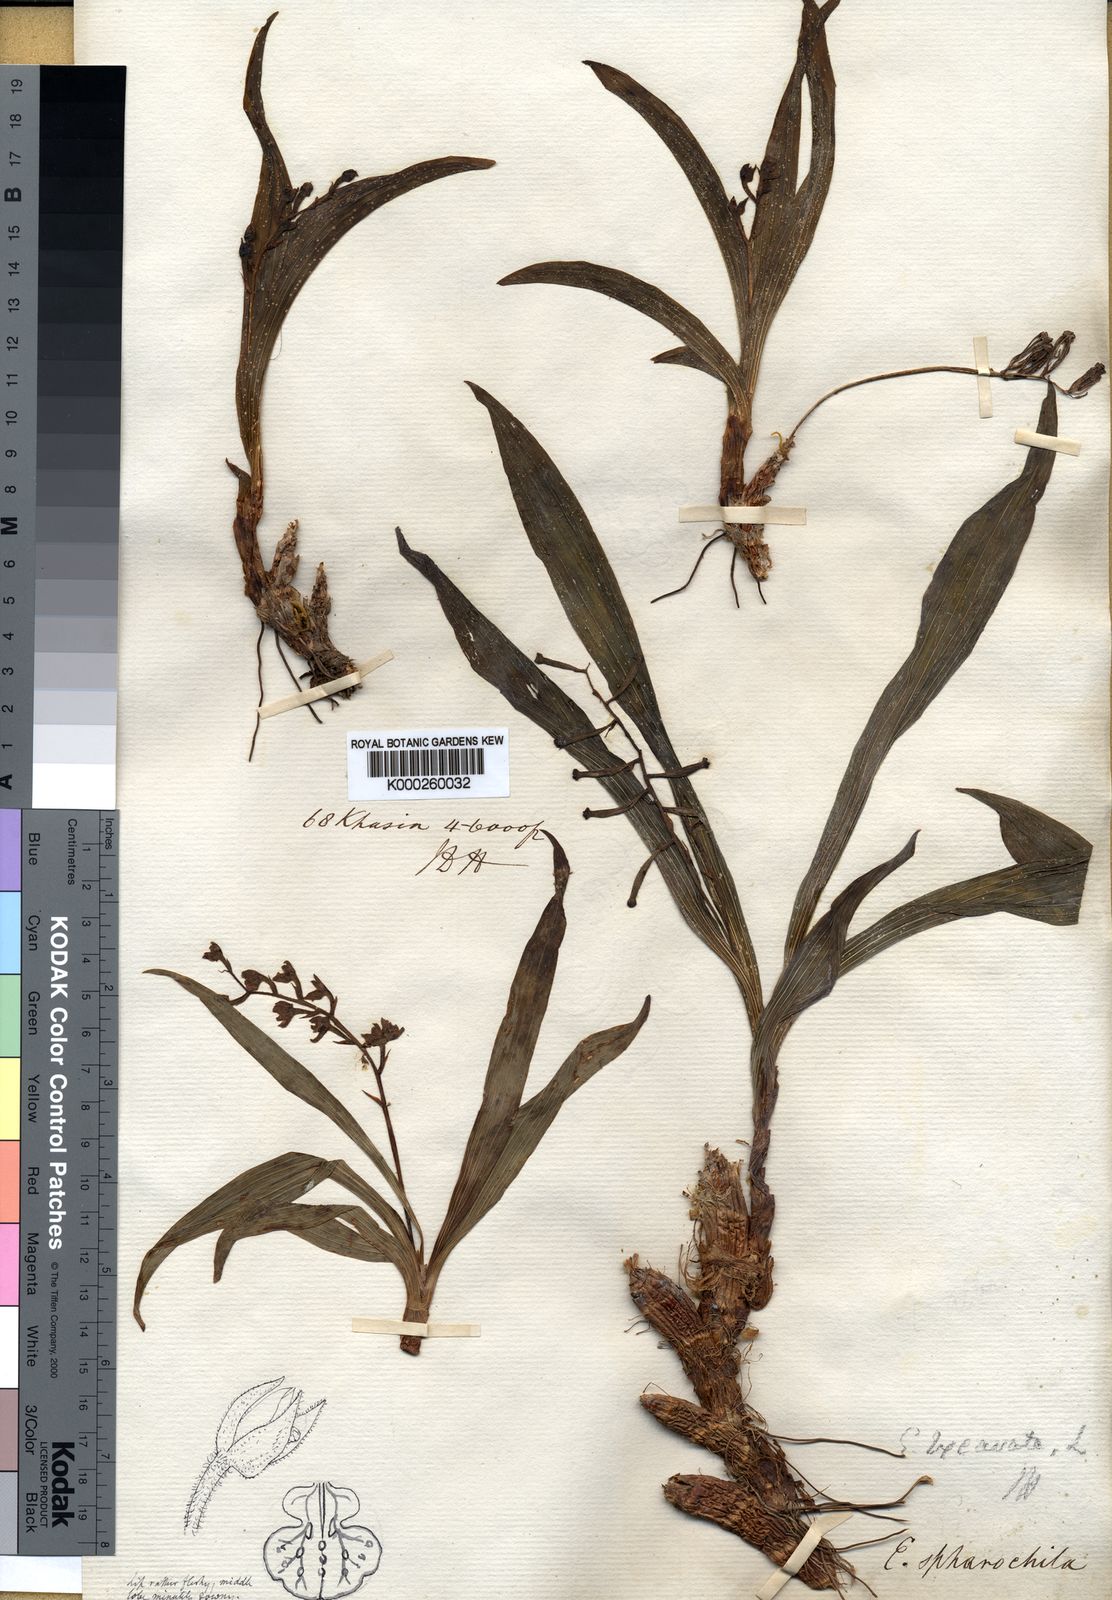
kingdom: Plantae
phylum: Tracheophyta
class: Liliopsida
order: Asparagales
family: Orchidaceae
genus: Pinalia
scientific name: Pinalia excavata
